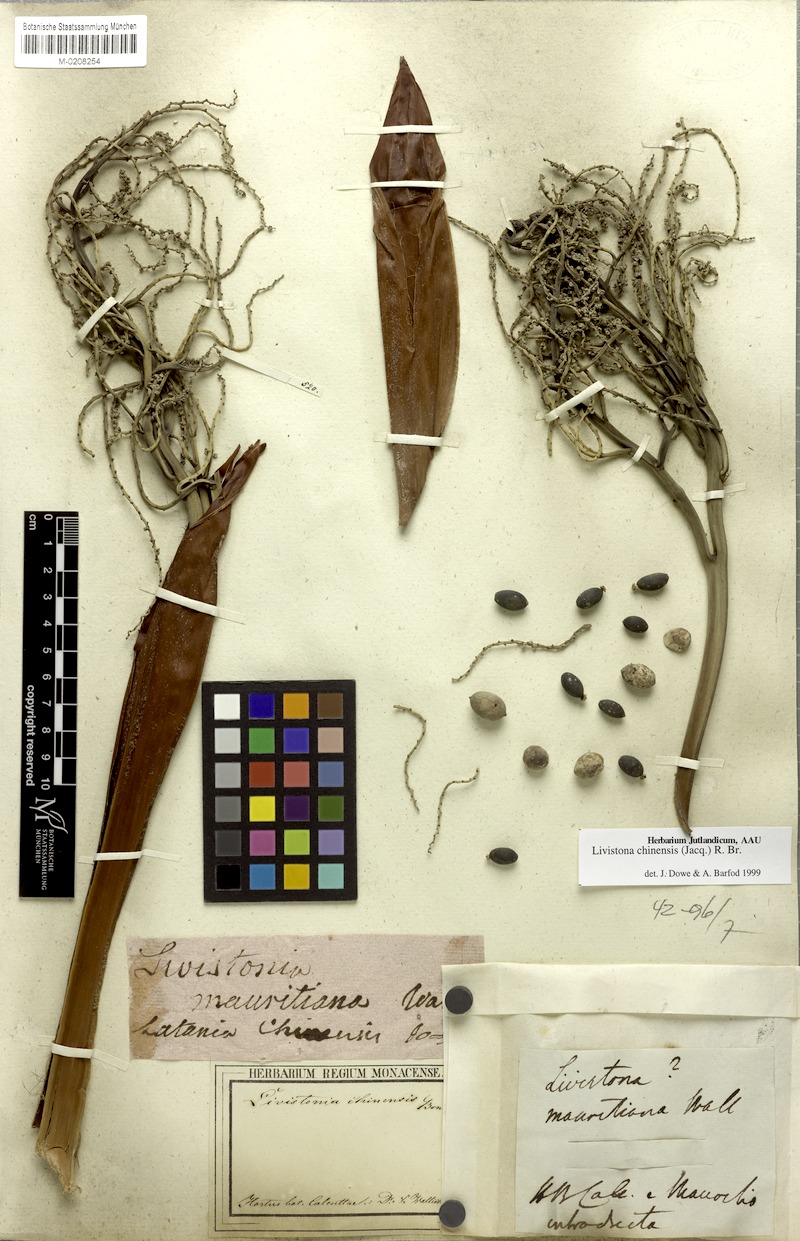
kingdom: Plantae
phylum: Tracheophyta
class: Liliopsida
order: Arecales
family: Arecaceae
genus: Livistona
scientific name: Livistona chinensis
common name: Fountain palm
